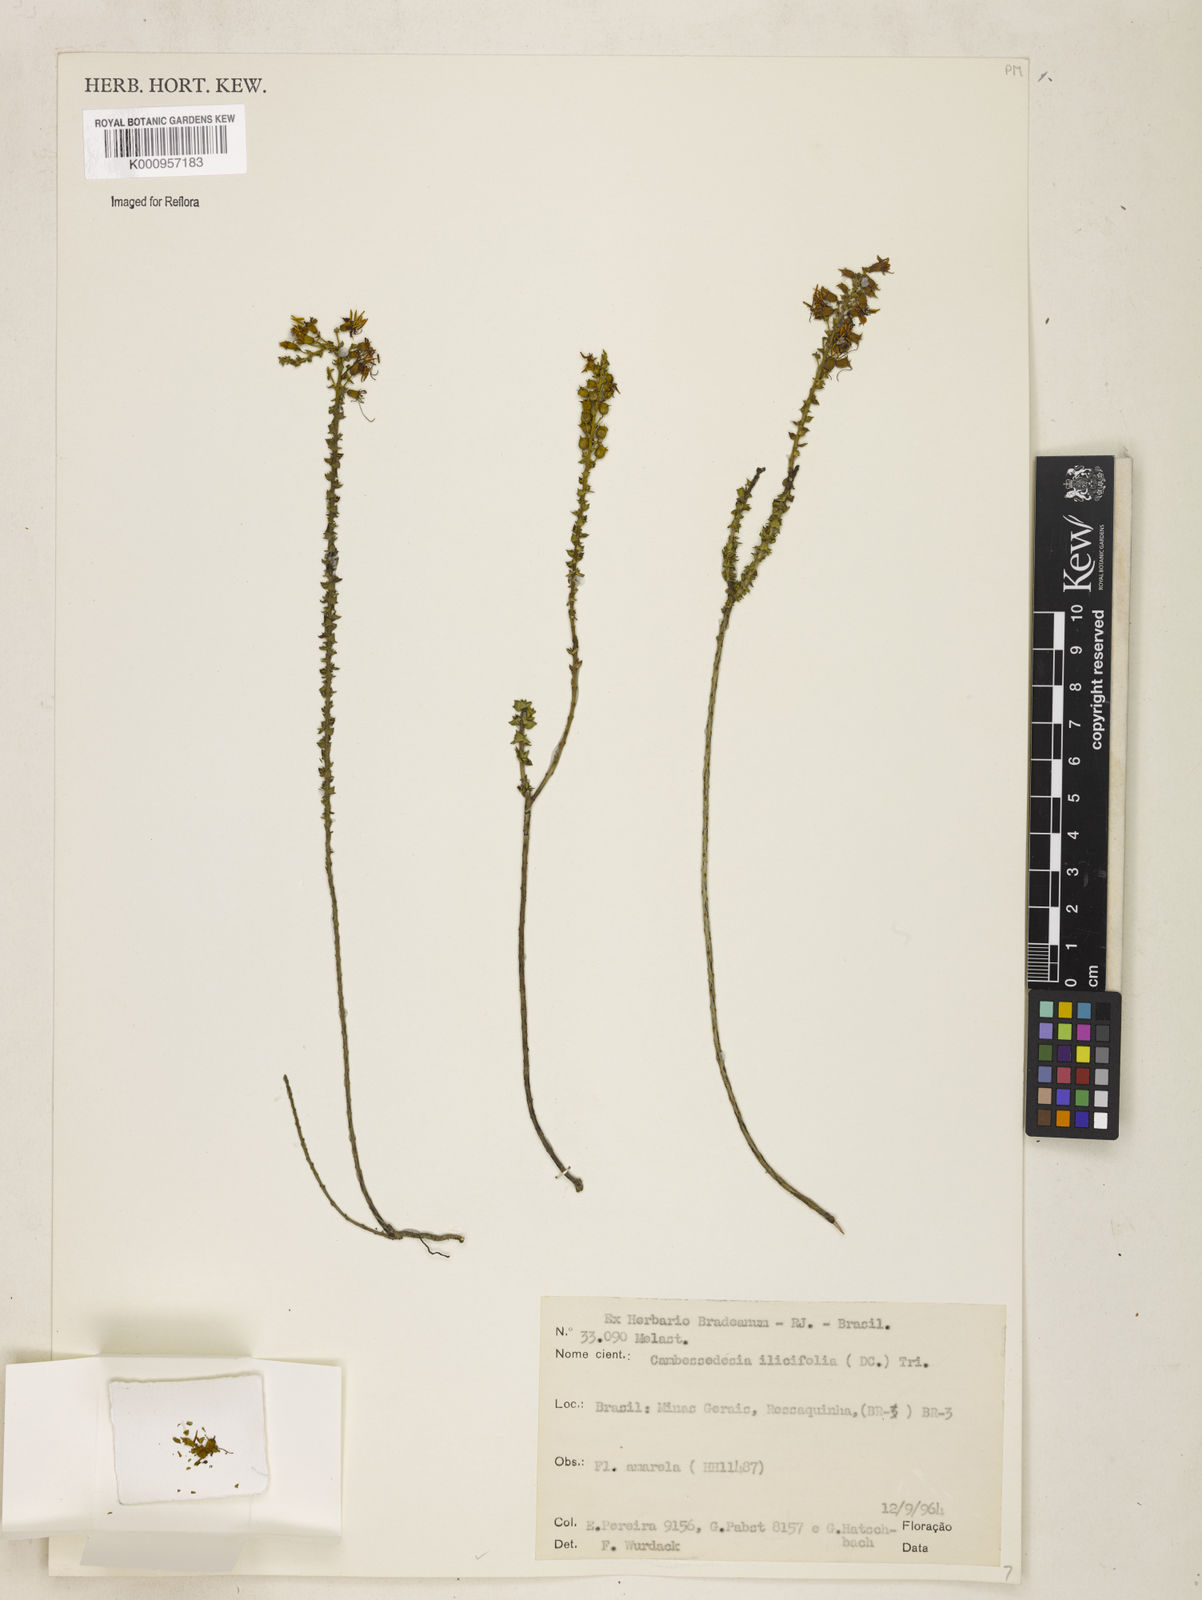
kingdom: Plantae
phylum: Tracheophyta
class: Magnoliopsida
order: Myrtales
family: Melastomataceae
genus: Cambessedesia
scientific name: Cambessedesia espora
